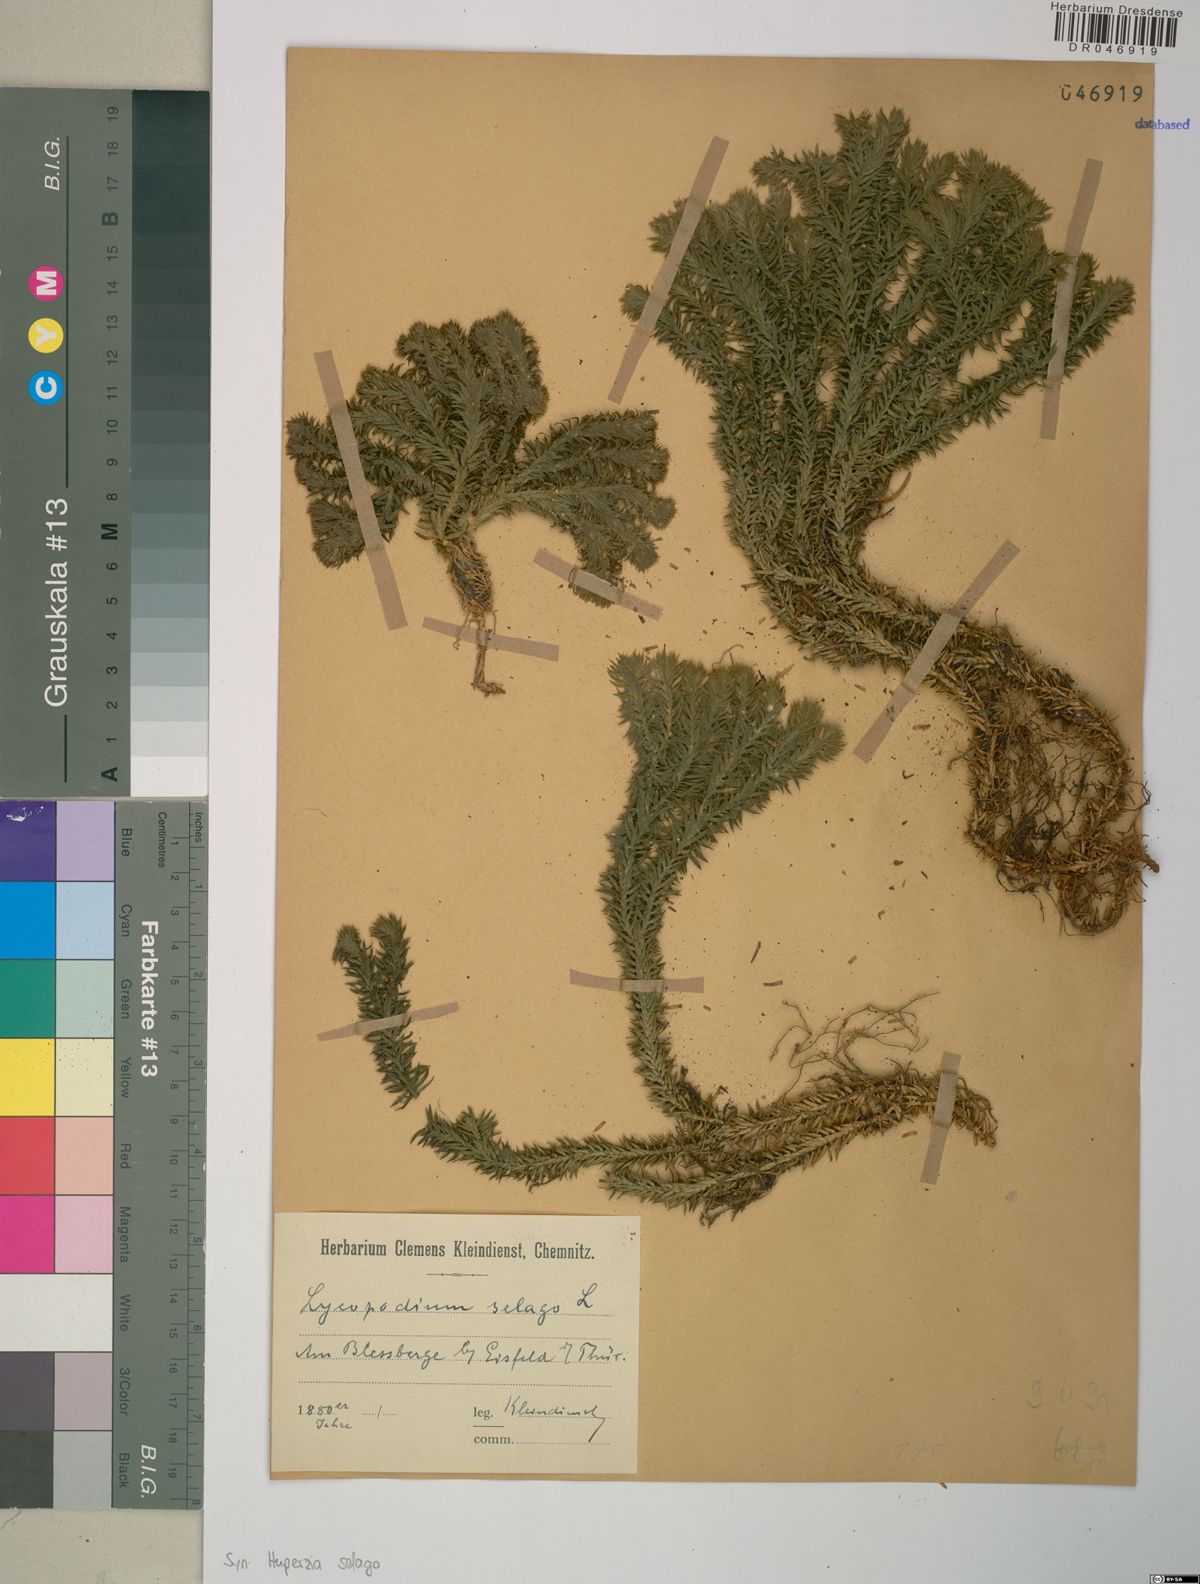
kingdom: Plantae
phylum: Tracheophyta
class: Lycopodiopsida
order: Lycopodiales
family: Lycopodiaceae
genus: Huperzia
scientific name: Huperzia selago
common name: Northern firmoss
